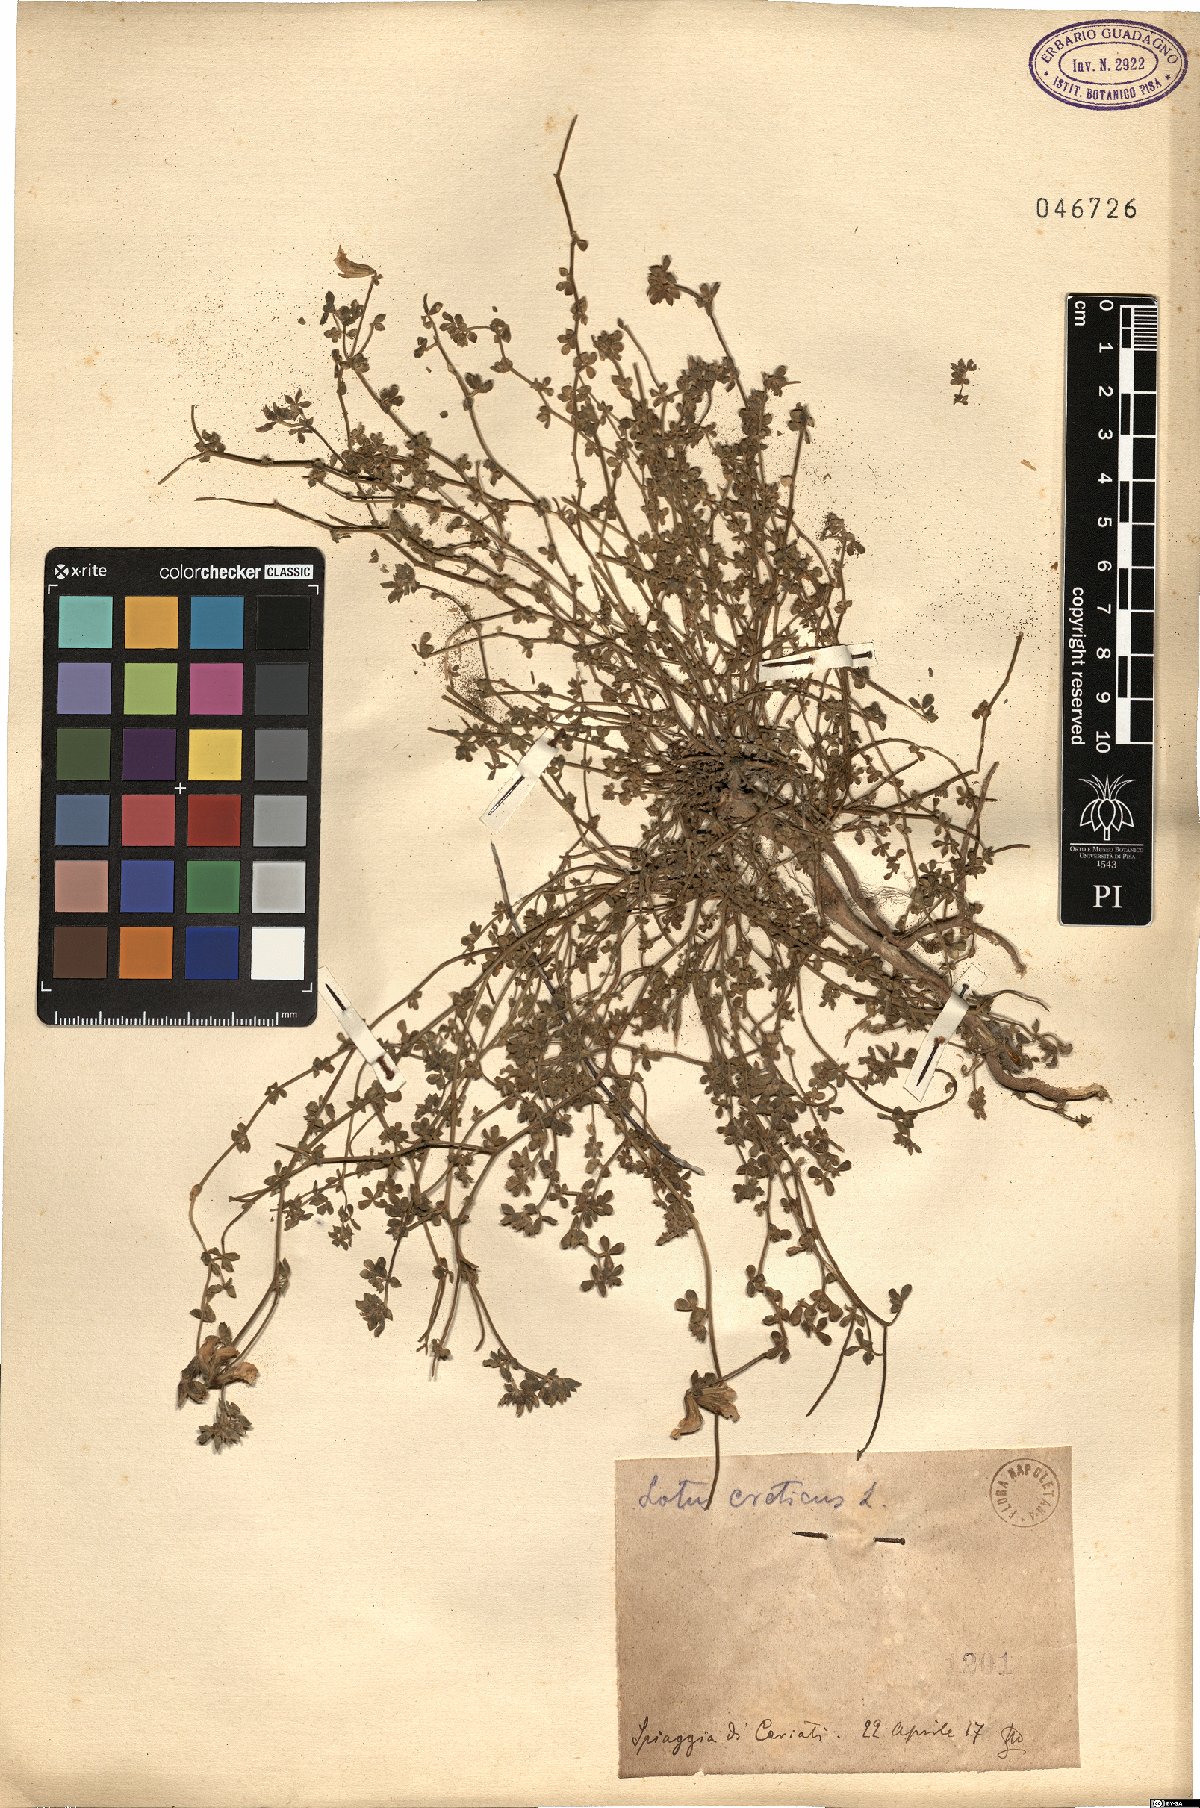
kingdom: Plantae
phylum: Tracheophyta
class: Magnoliopsida
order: Fabales
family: Fabaceae
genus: Lotus
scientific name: Lotus creticus
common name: Cretan bird's-foot trefoil
